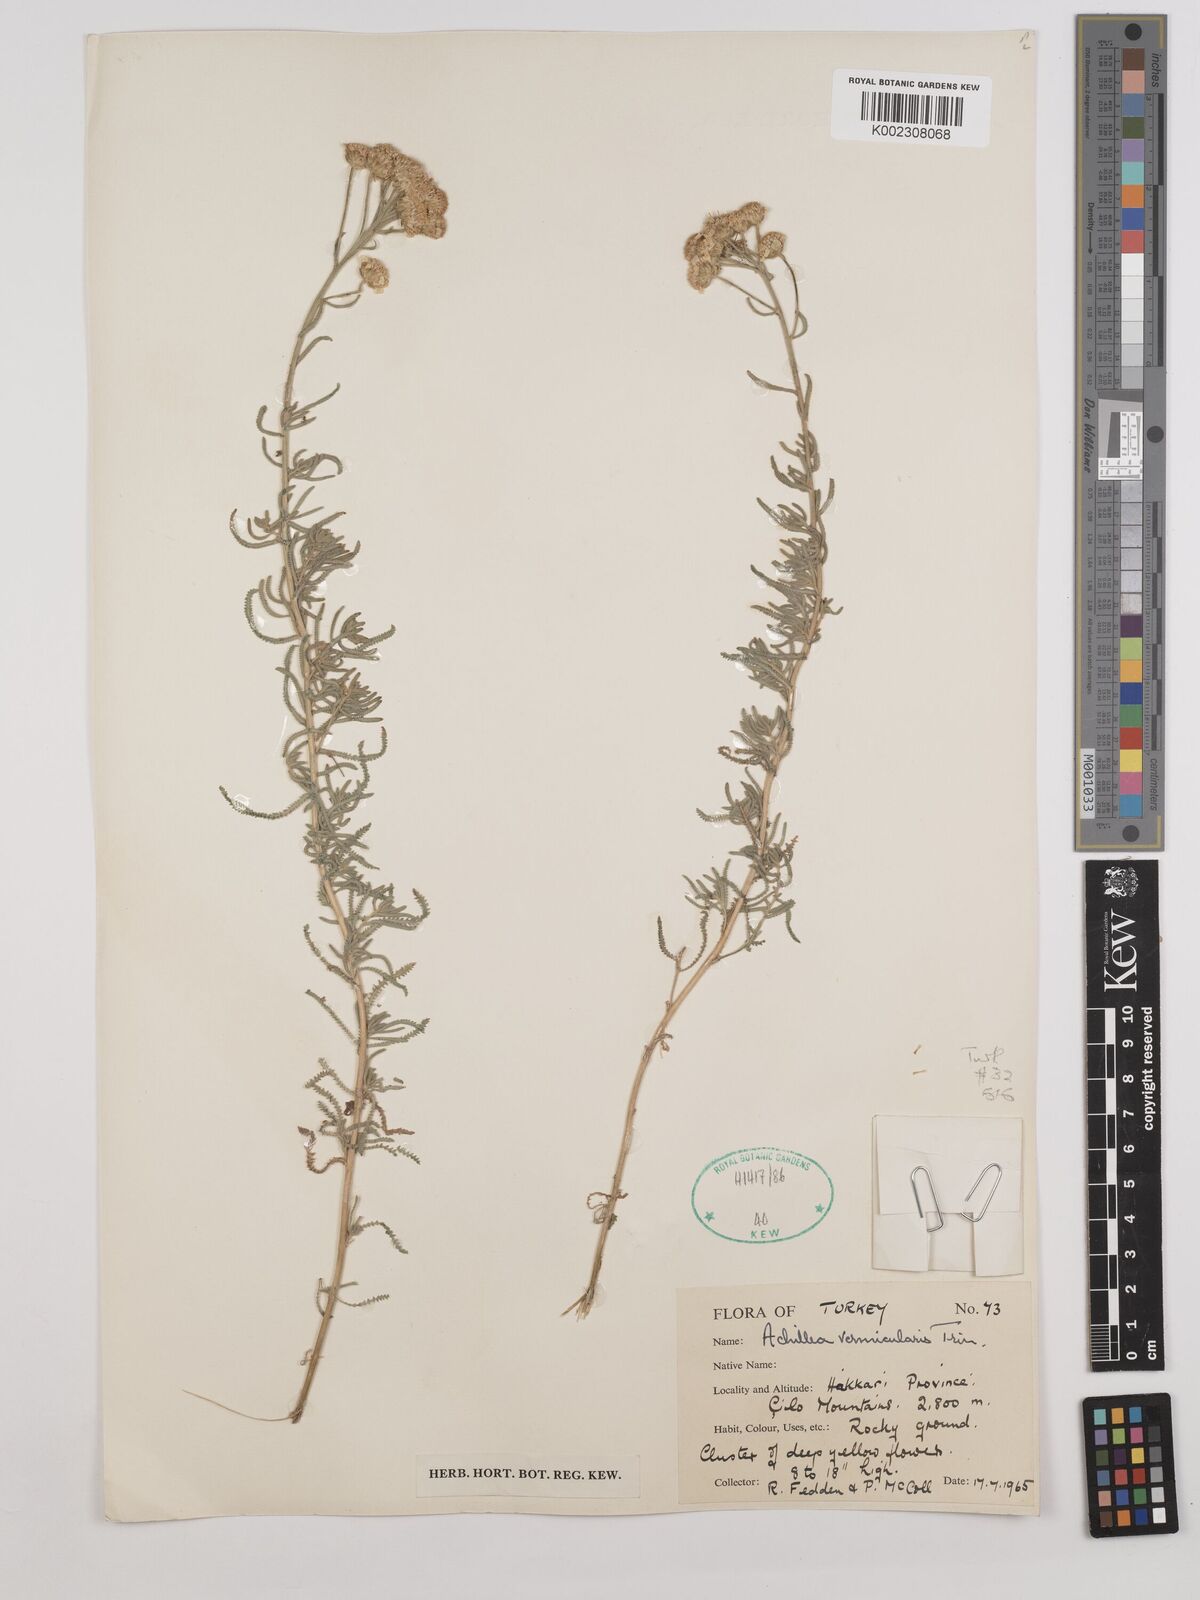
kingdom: Plantae
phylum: Tracheophyta
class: Magnoliopsida
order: Asterales
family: Asteraceae
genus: Achillea
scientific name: Achillea vermicularis
